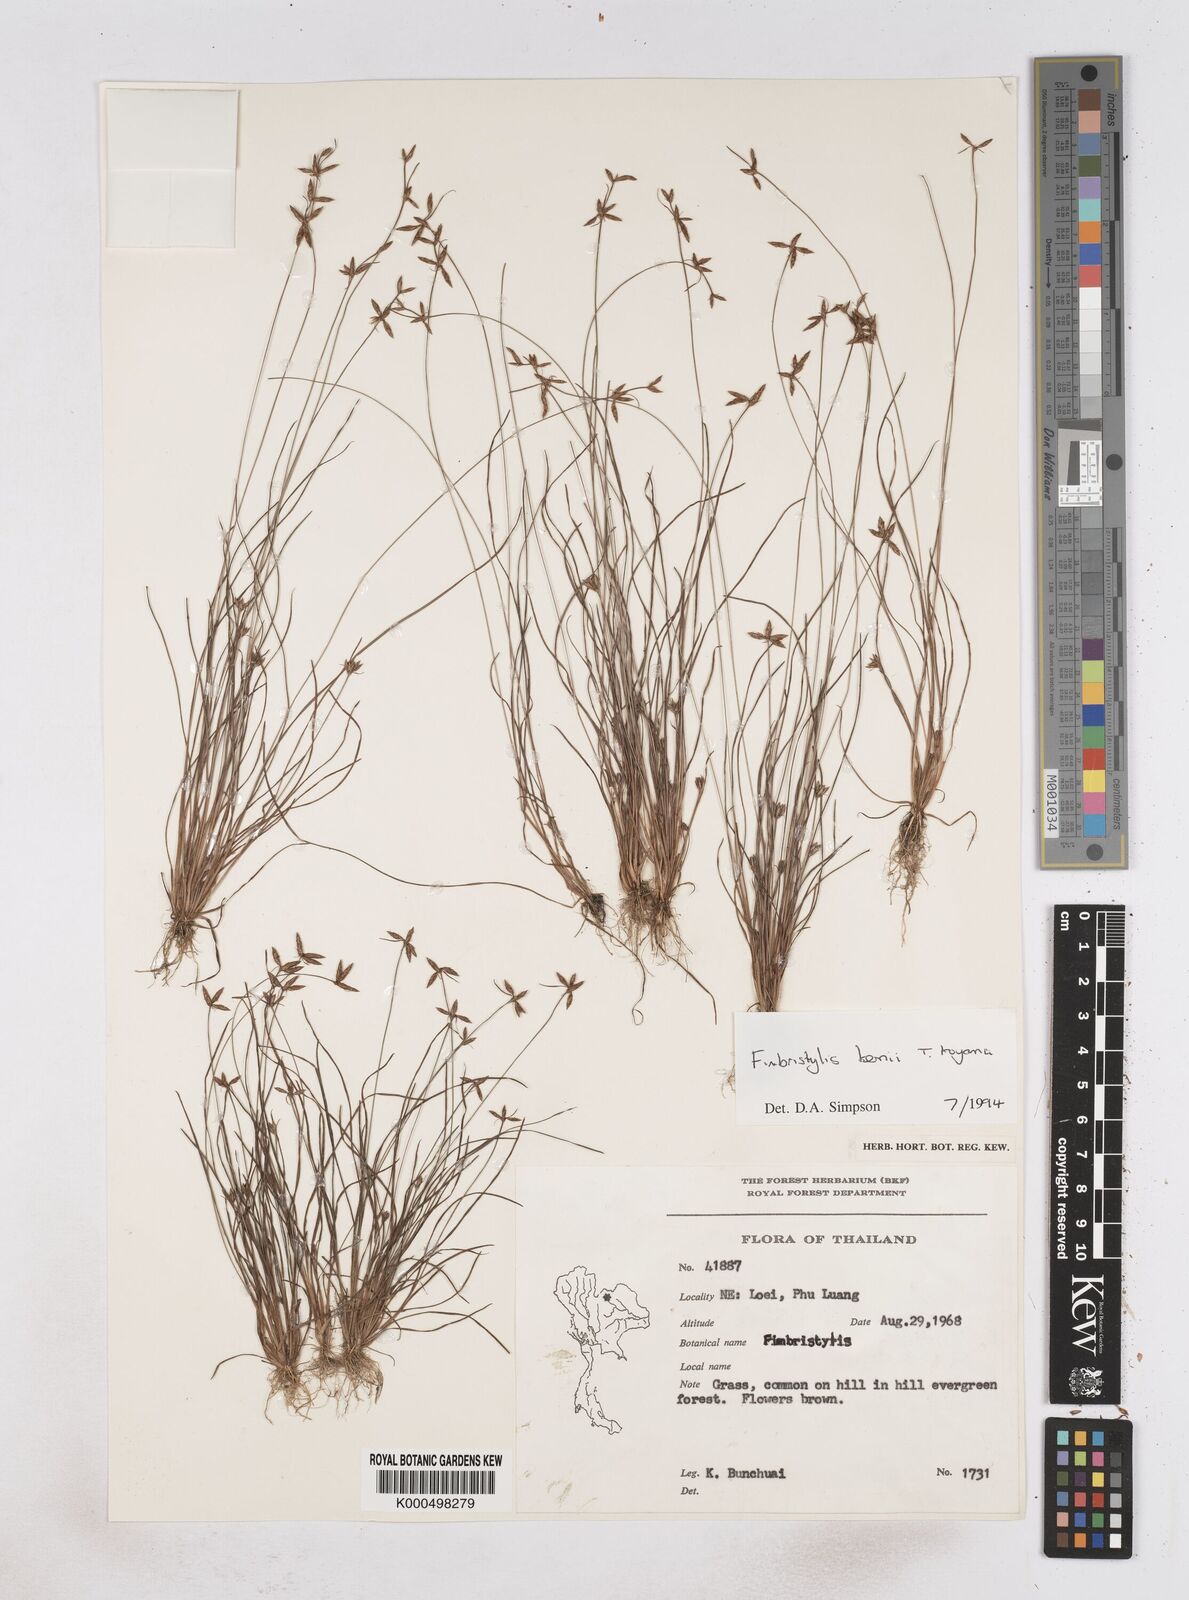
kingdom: Plantae
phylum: Tracheophyta
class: Liliopsida
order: Poales
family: Cyperaceae
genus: Fimbristylis
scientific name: Fimbristylis kernii
